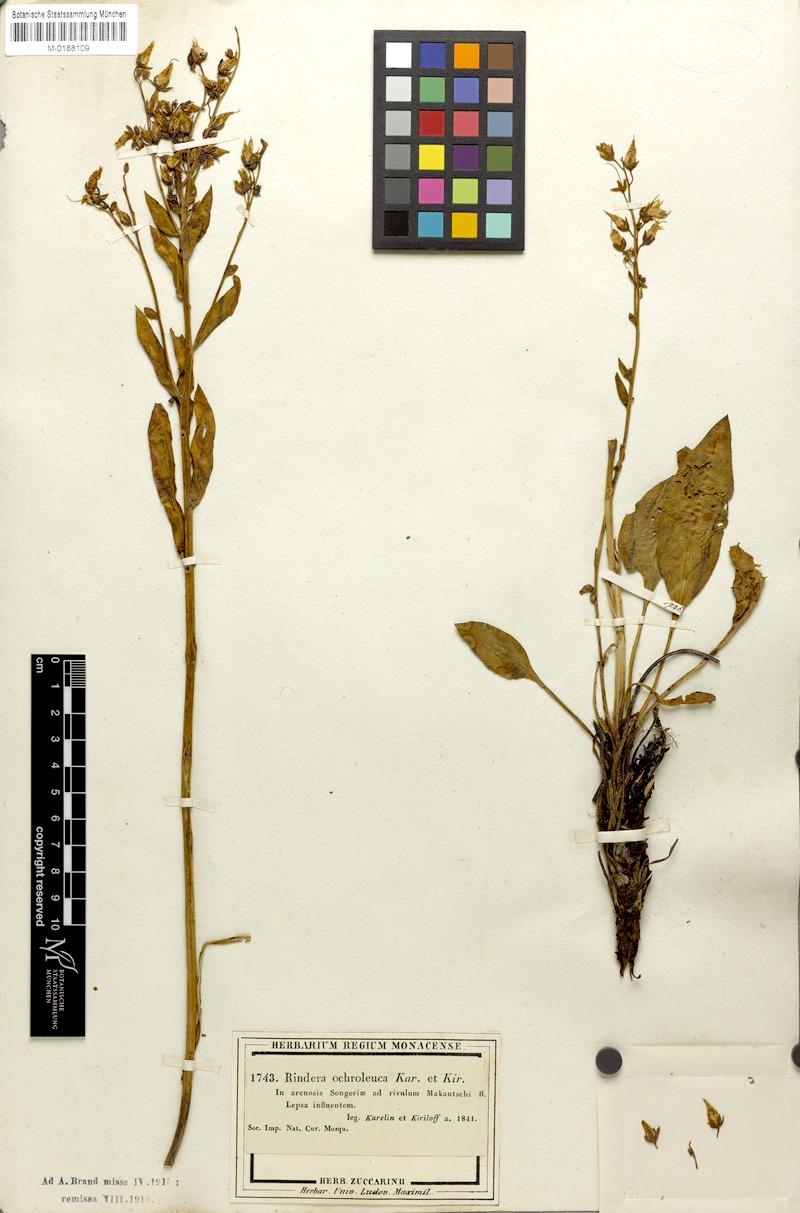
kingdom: Plantae
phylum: Tracheophyta
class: Magnoliopsida
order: Boraginales
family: Boraginaceae
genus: Rindera
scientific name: Rindera ochroleuca
